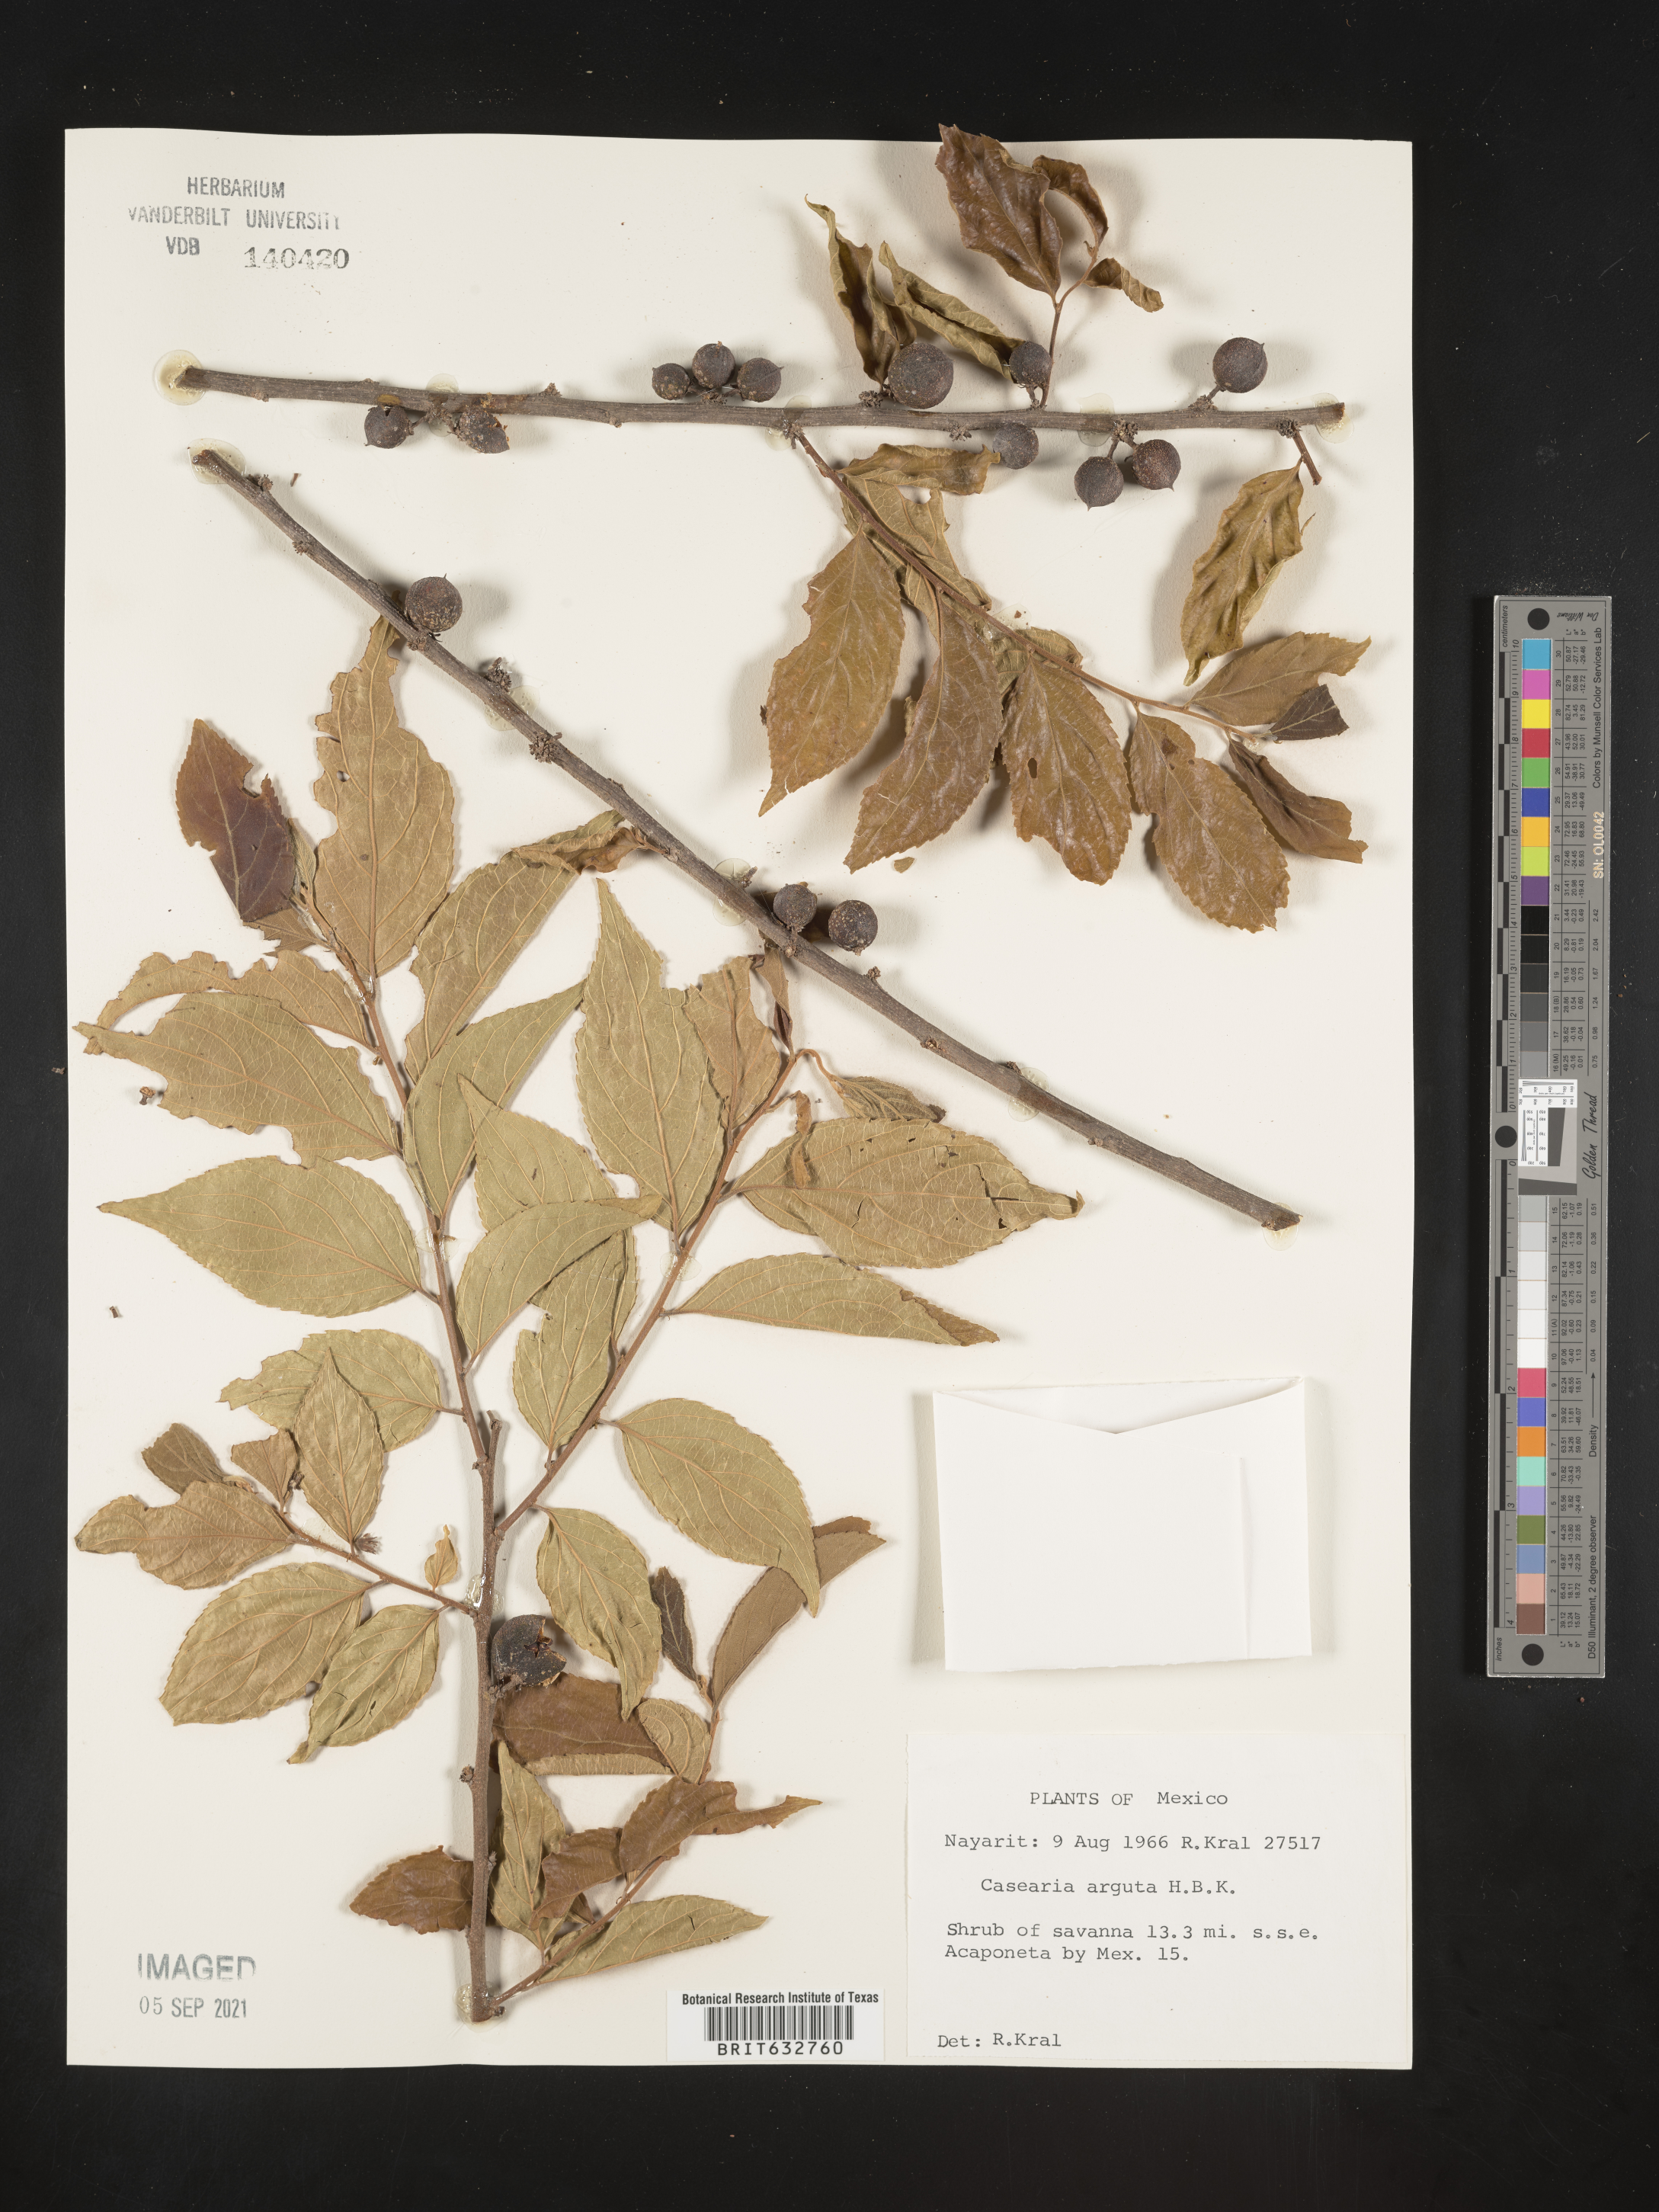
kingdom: Plantae
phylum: Tracheophyta
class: Magnoliopsida
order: Malpighiales
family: Salicaceae
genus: Casearia
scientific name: Casearia
